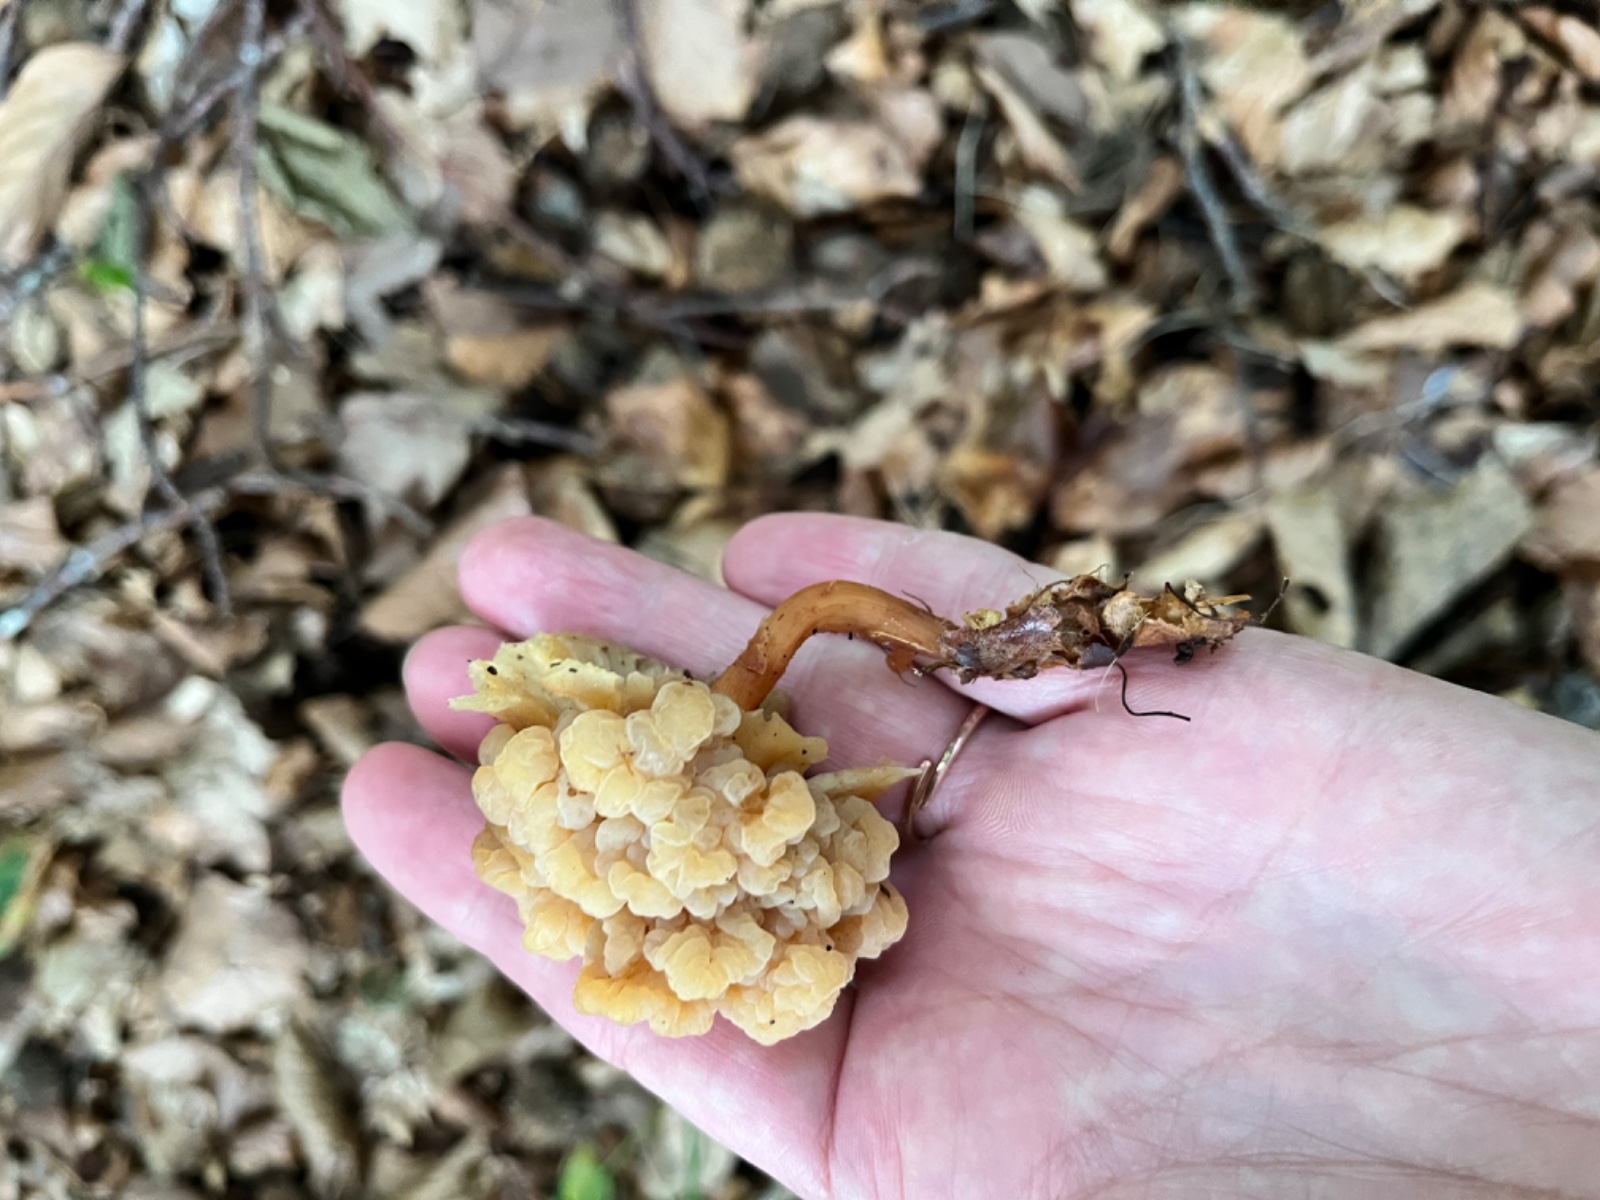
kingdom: Fungi
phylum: Basidiomycota
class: Tremellomycetes
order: Filobasidiales
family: Filobasidiaceae
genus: Syzygospora
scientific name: Syzygospora tumefaciens
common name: fladhatte-snyltehjerne
